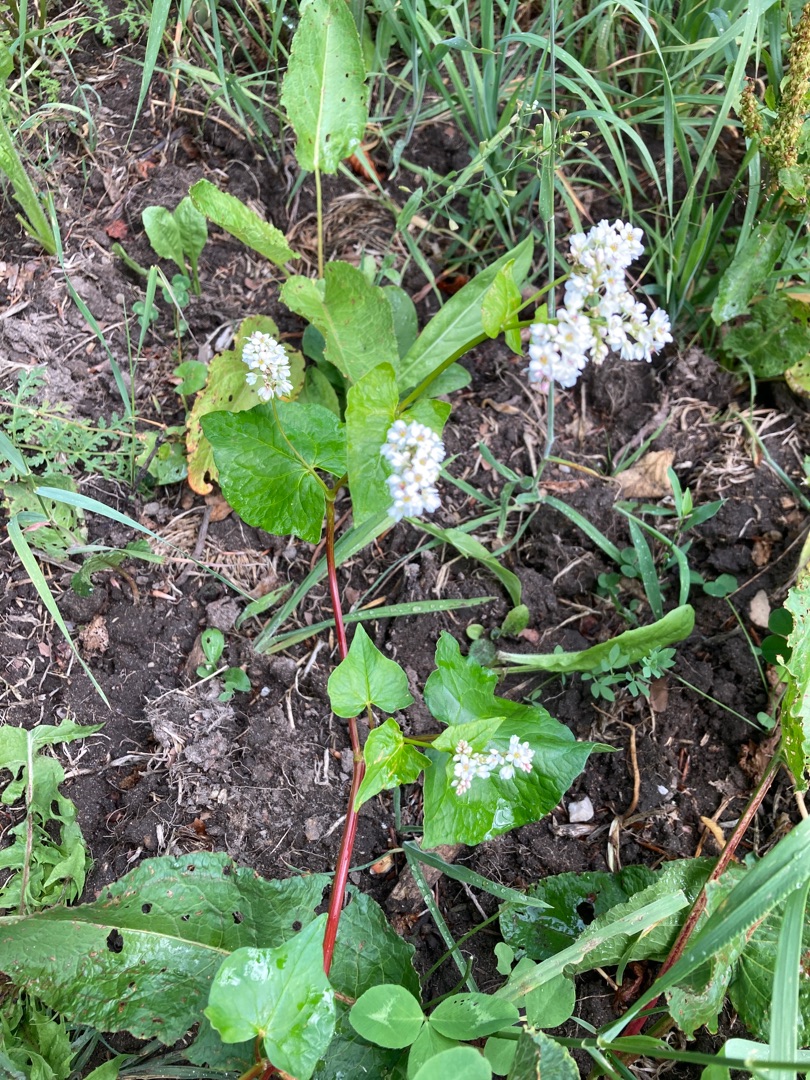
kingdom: Plantae
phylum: Tracheophyta
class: Magnoliopsida
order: Caryophyllales
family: Polygonaceae
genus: Fagopyrum
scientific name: Fagopyrum esculentum
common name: Almindelig boghvede
